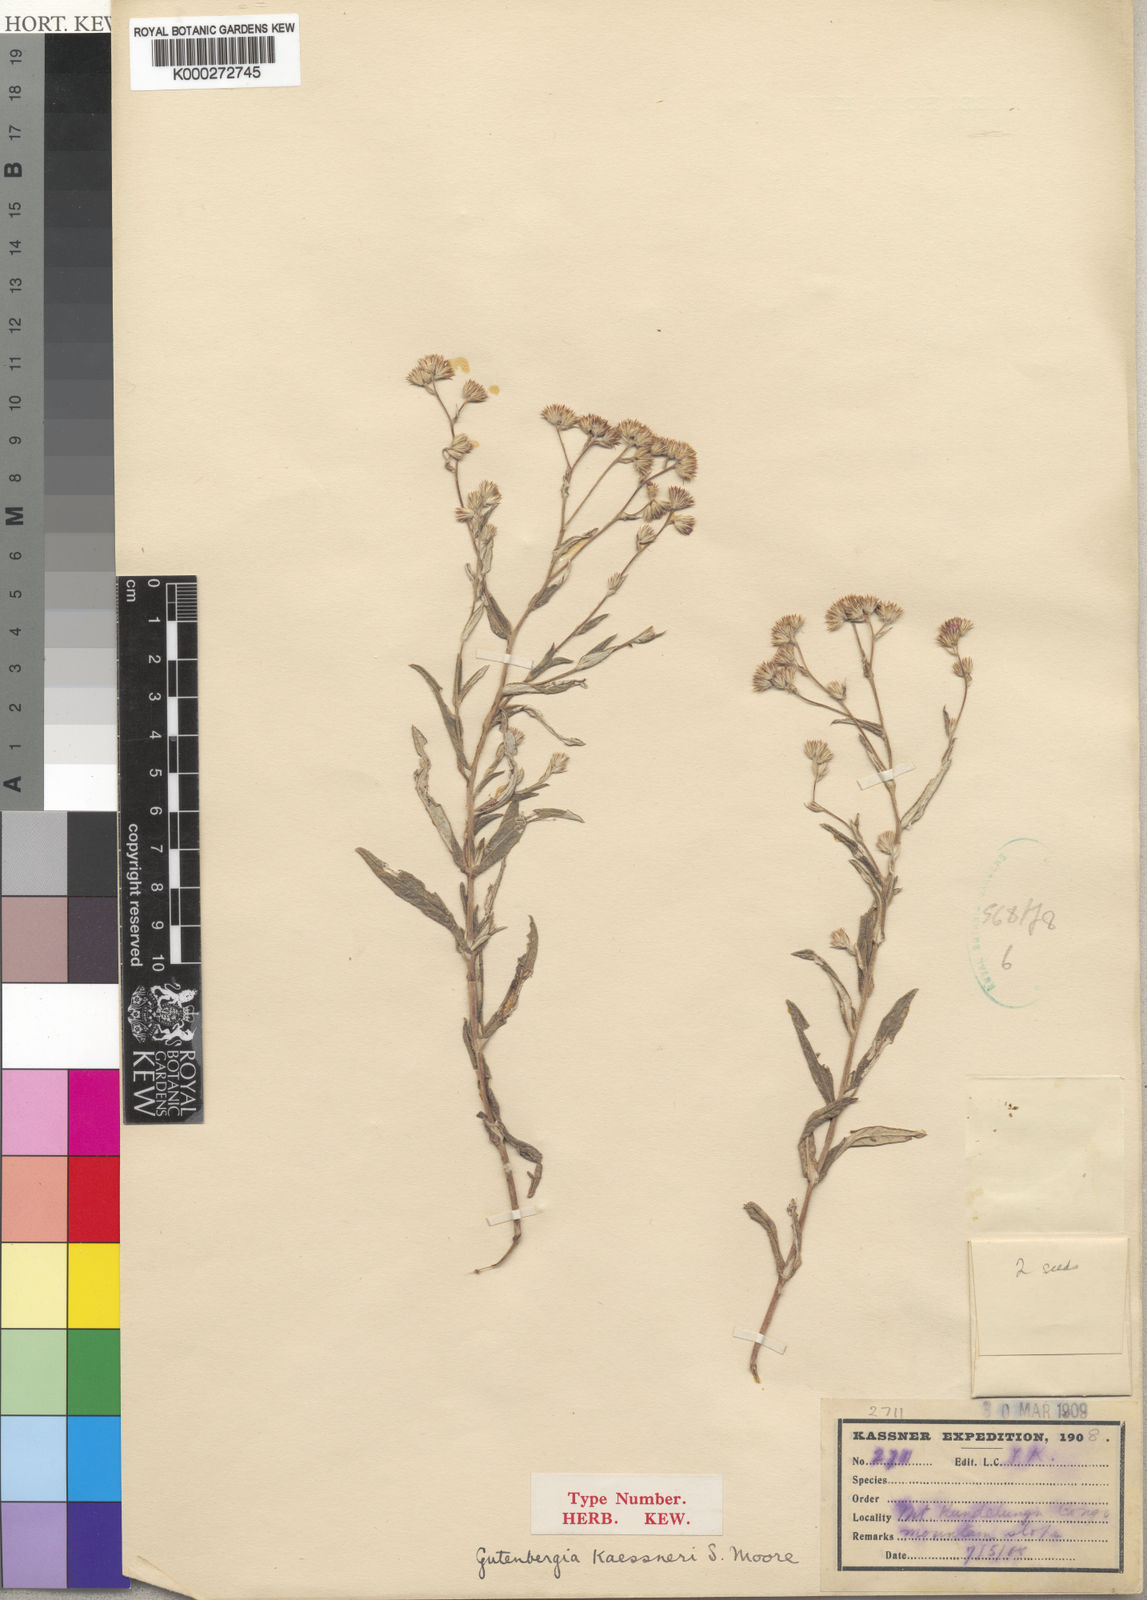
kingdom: Plantae
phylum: Tracheophyta
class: Magnoliopsida
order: Asterales
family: Asteraceae
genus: Gutenbergia
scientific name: Gutenbergia kassneri
